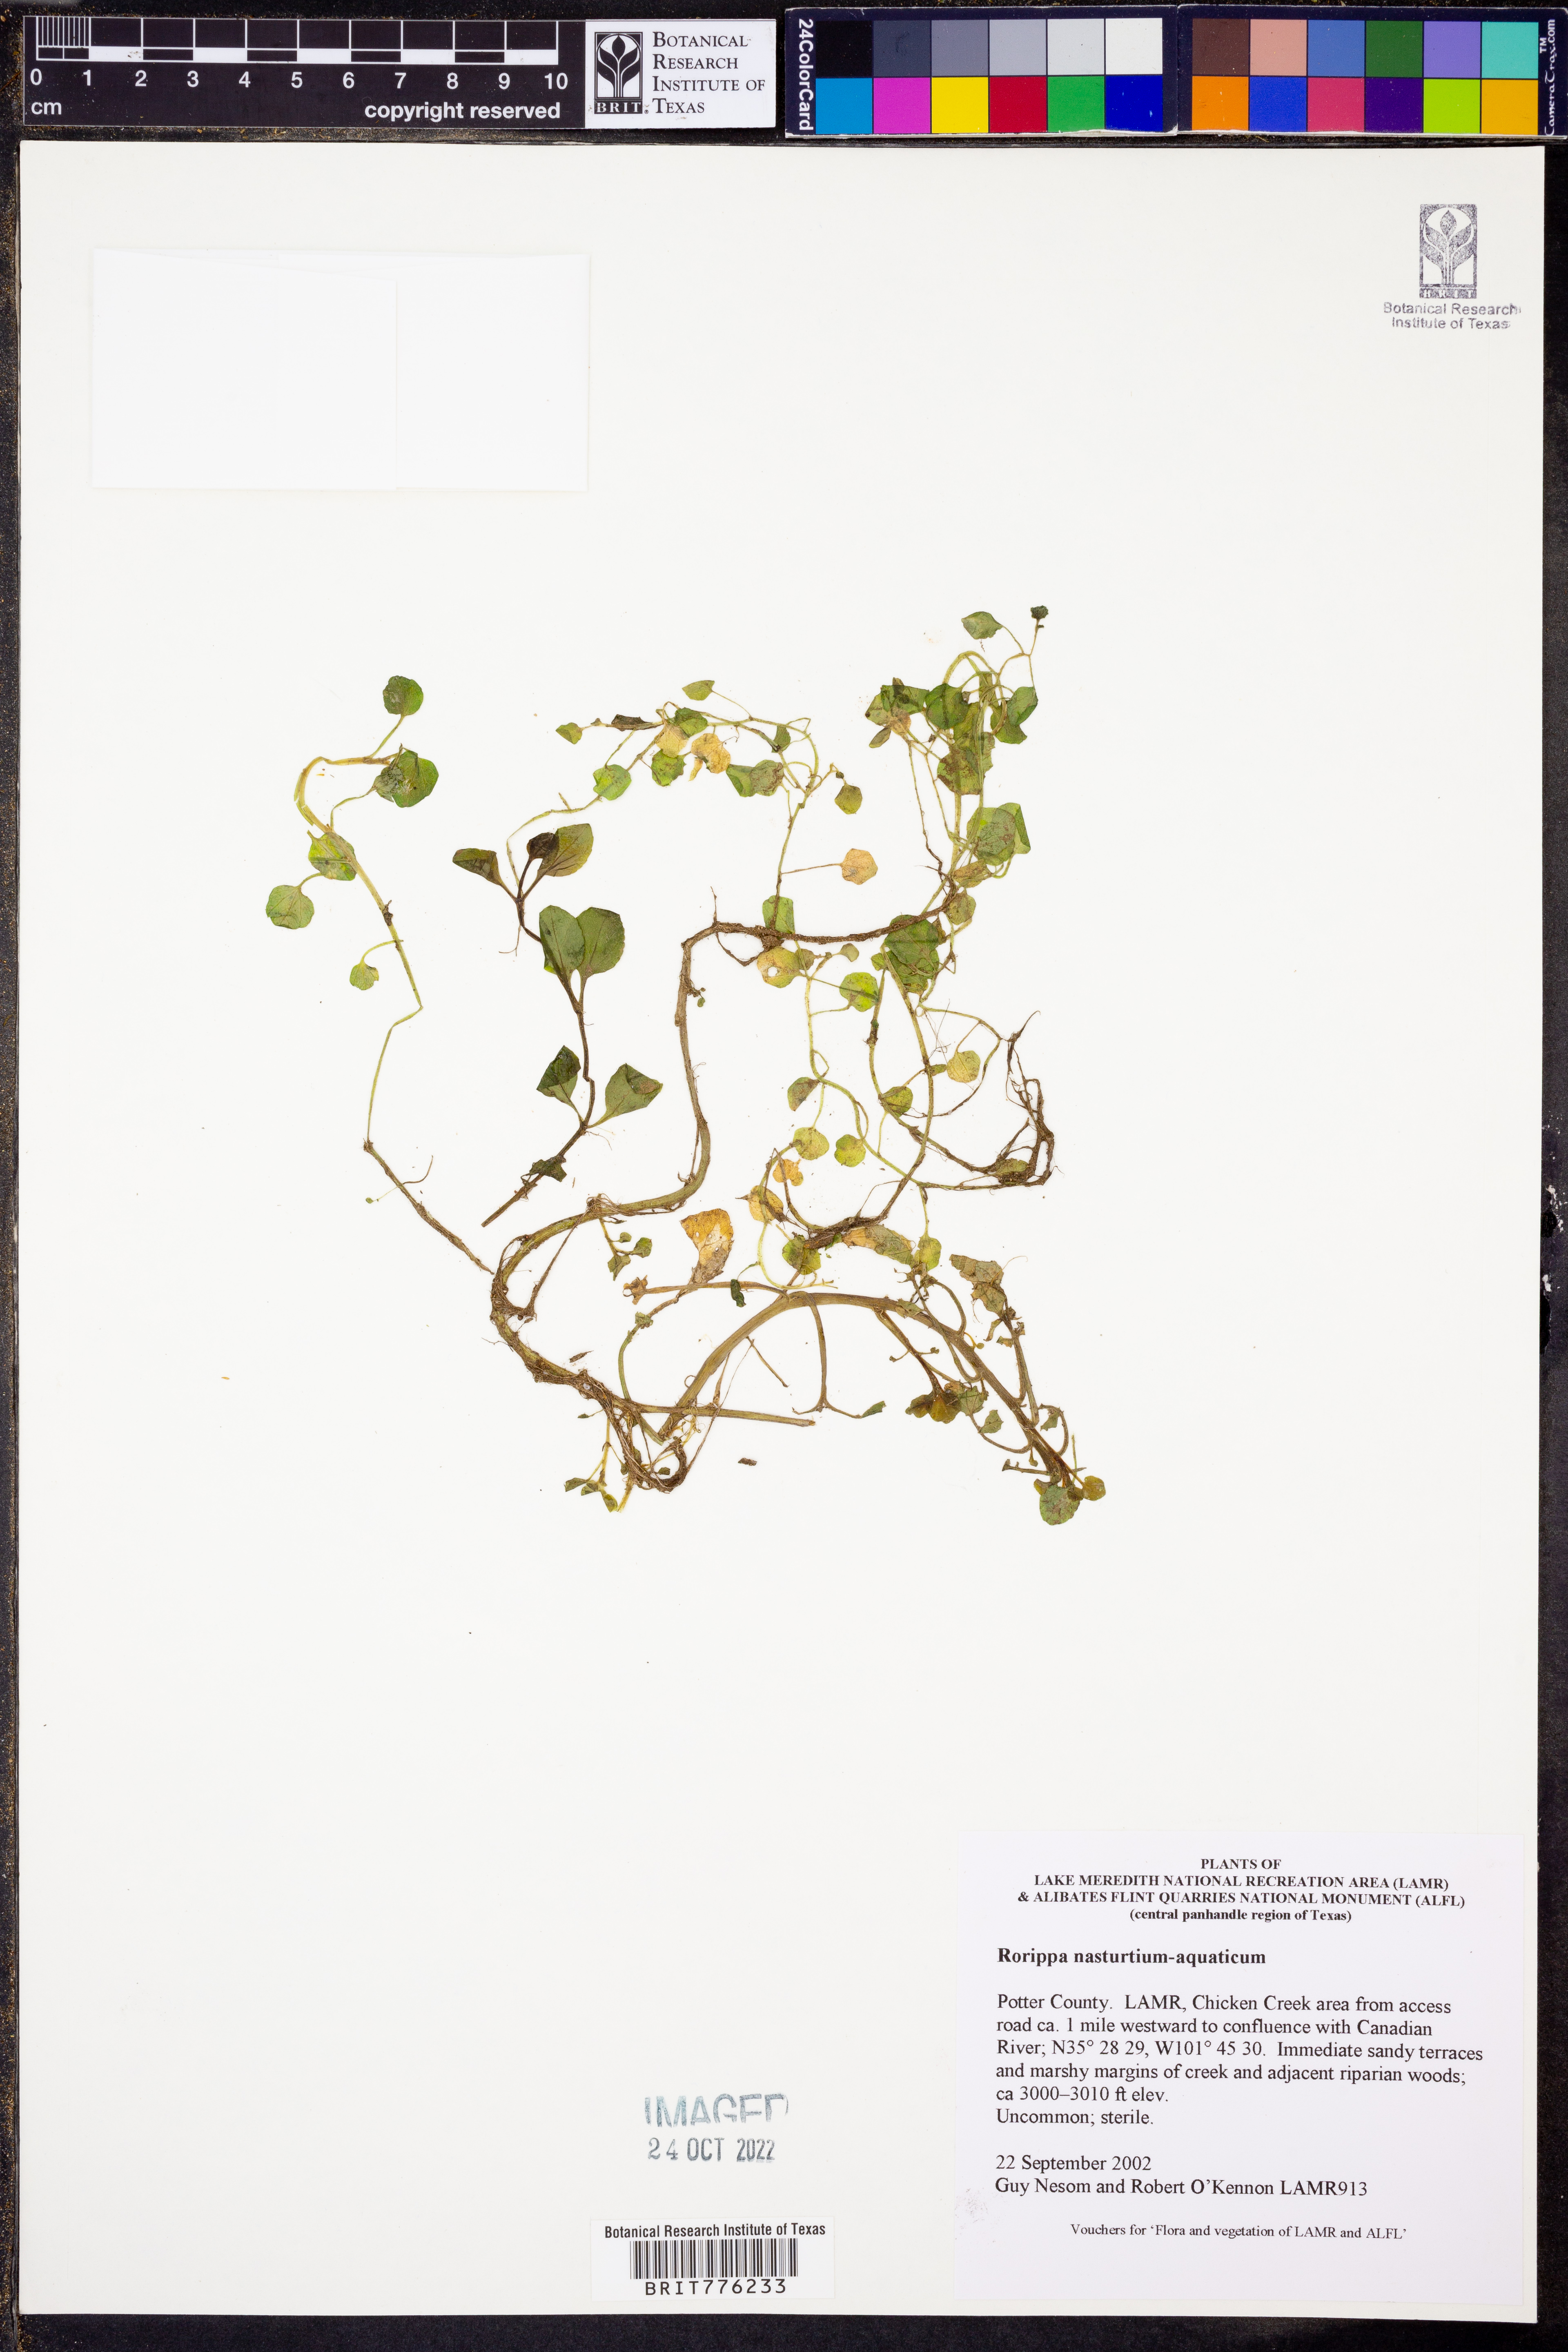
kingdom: Plantae
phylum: Tracheophyta
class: Magnoliopsida
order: Brassicales
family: Brassicaceae
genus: Nasturtium
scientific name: Nasturtium officinale
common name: Watercress
